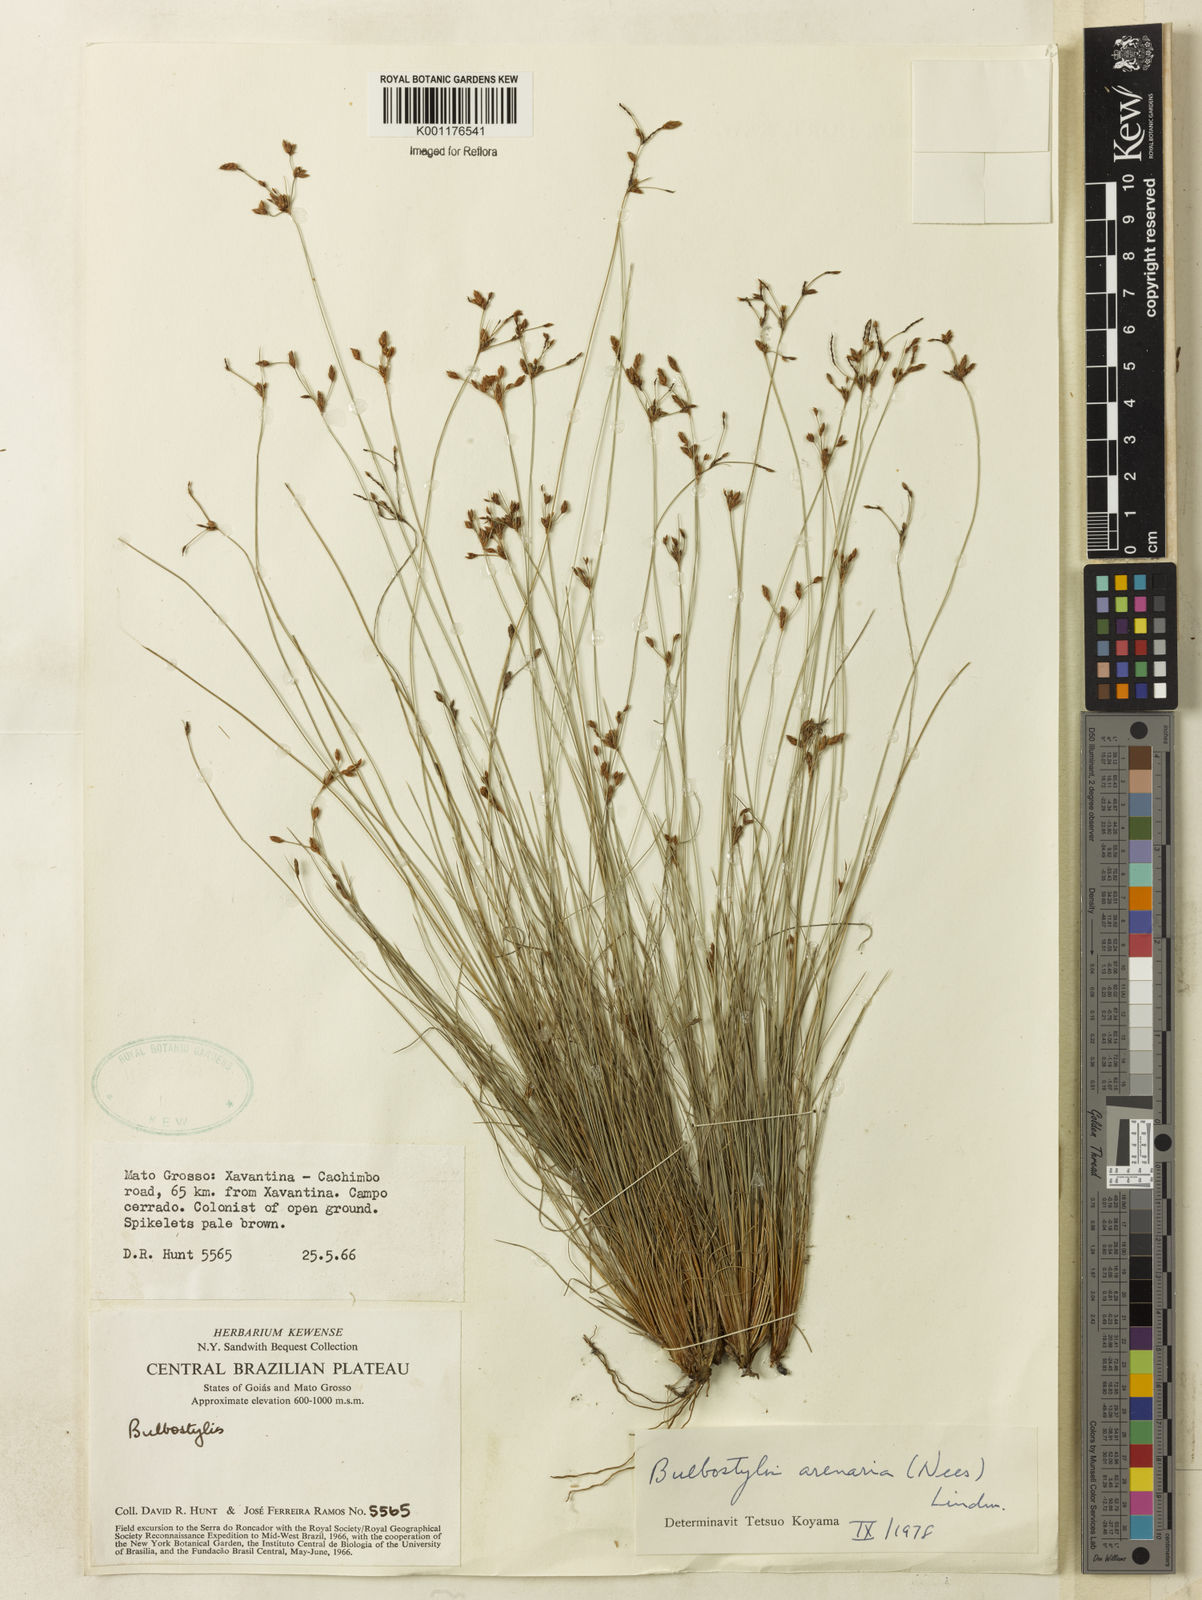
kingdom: Plantae
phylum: Tracheophyta
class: Liliopsida
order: Poales
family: Cyperaceae
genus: Bulbostylis
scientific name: Bulbostylis juncoides
